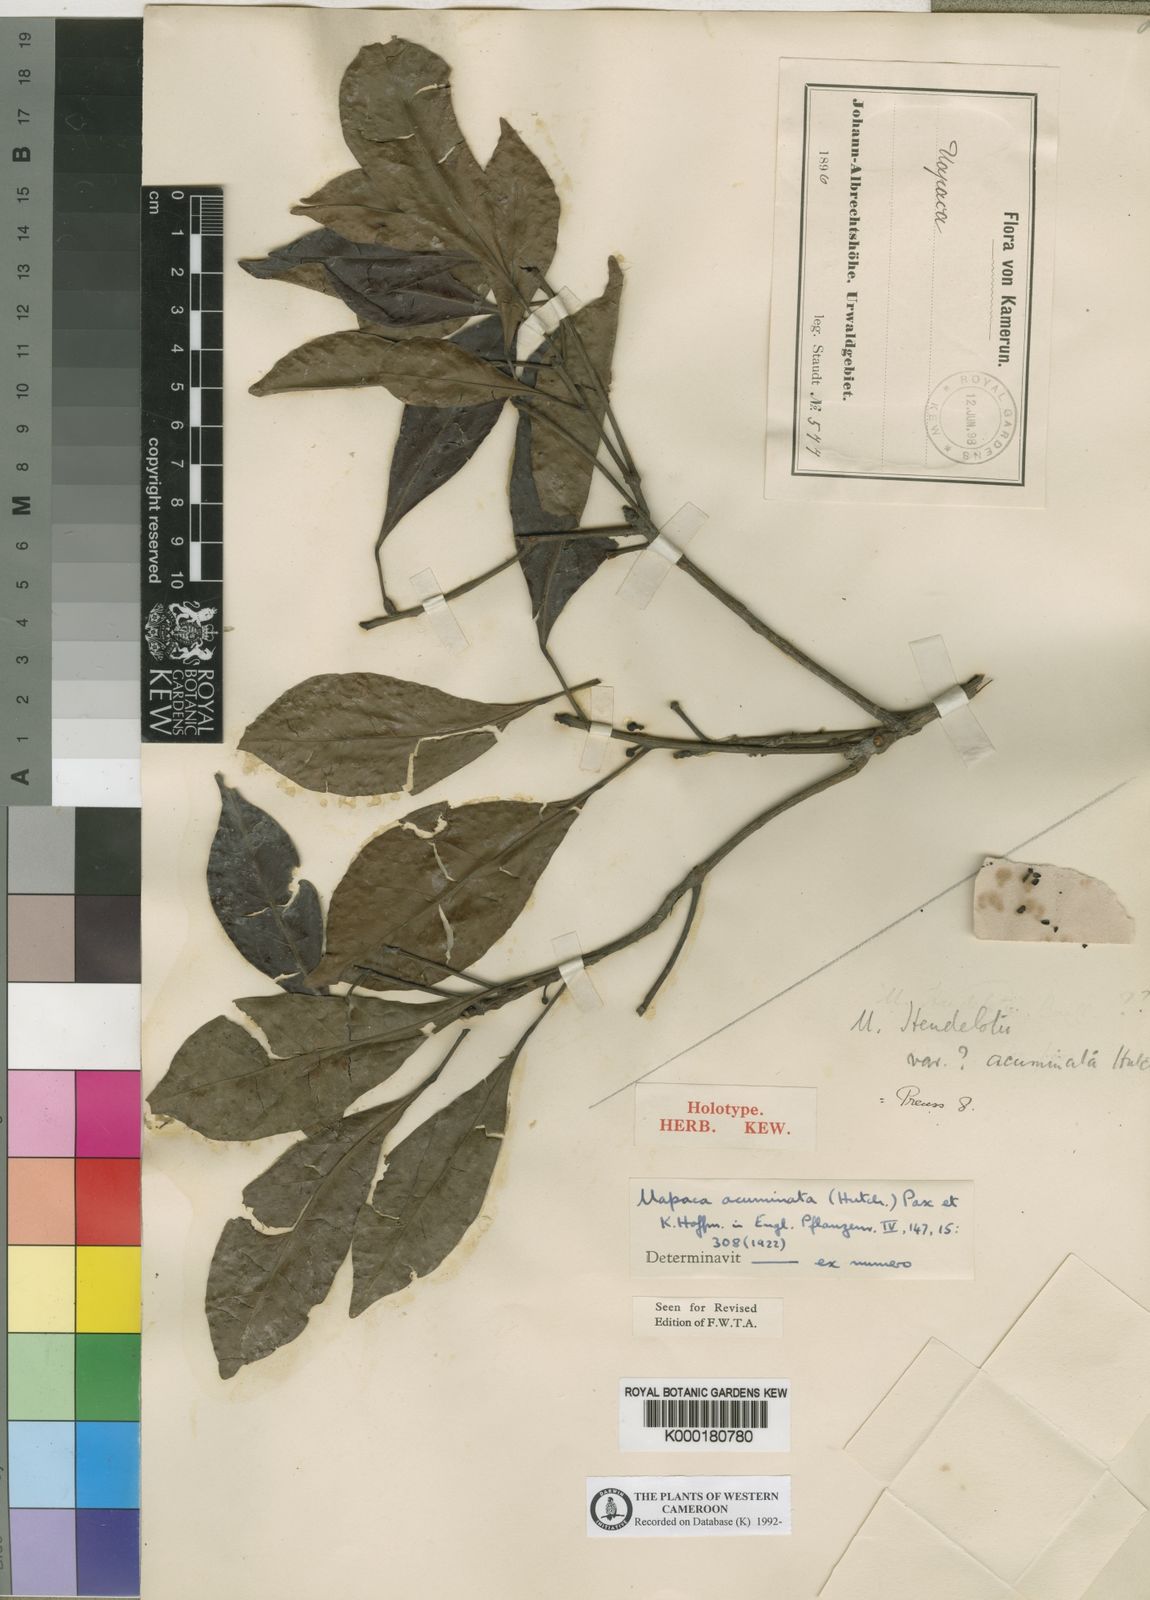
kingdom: Plantae
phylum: Tracheophyta
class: Magnoliopsida
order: Malpighiales
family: Phyllanthaceae
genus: Uapaca
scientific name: Uapaca acuminata
